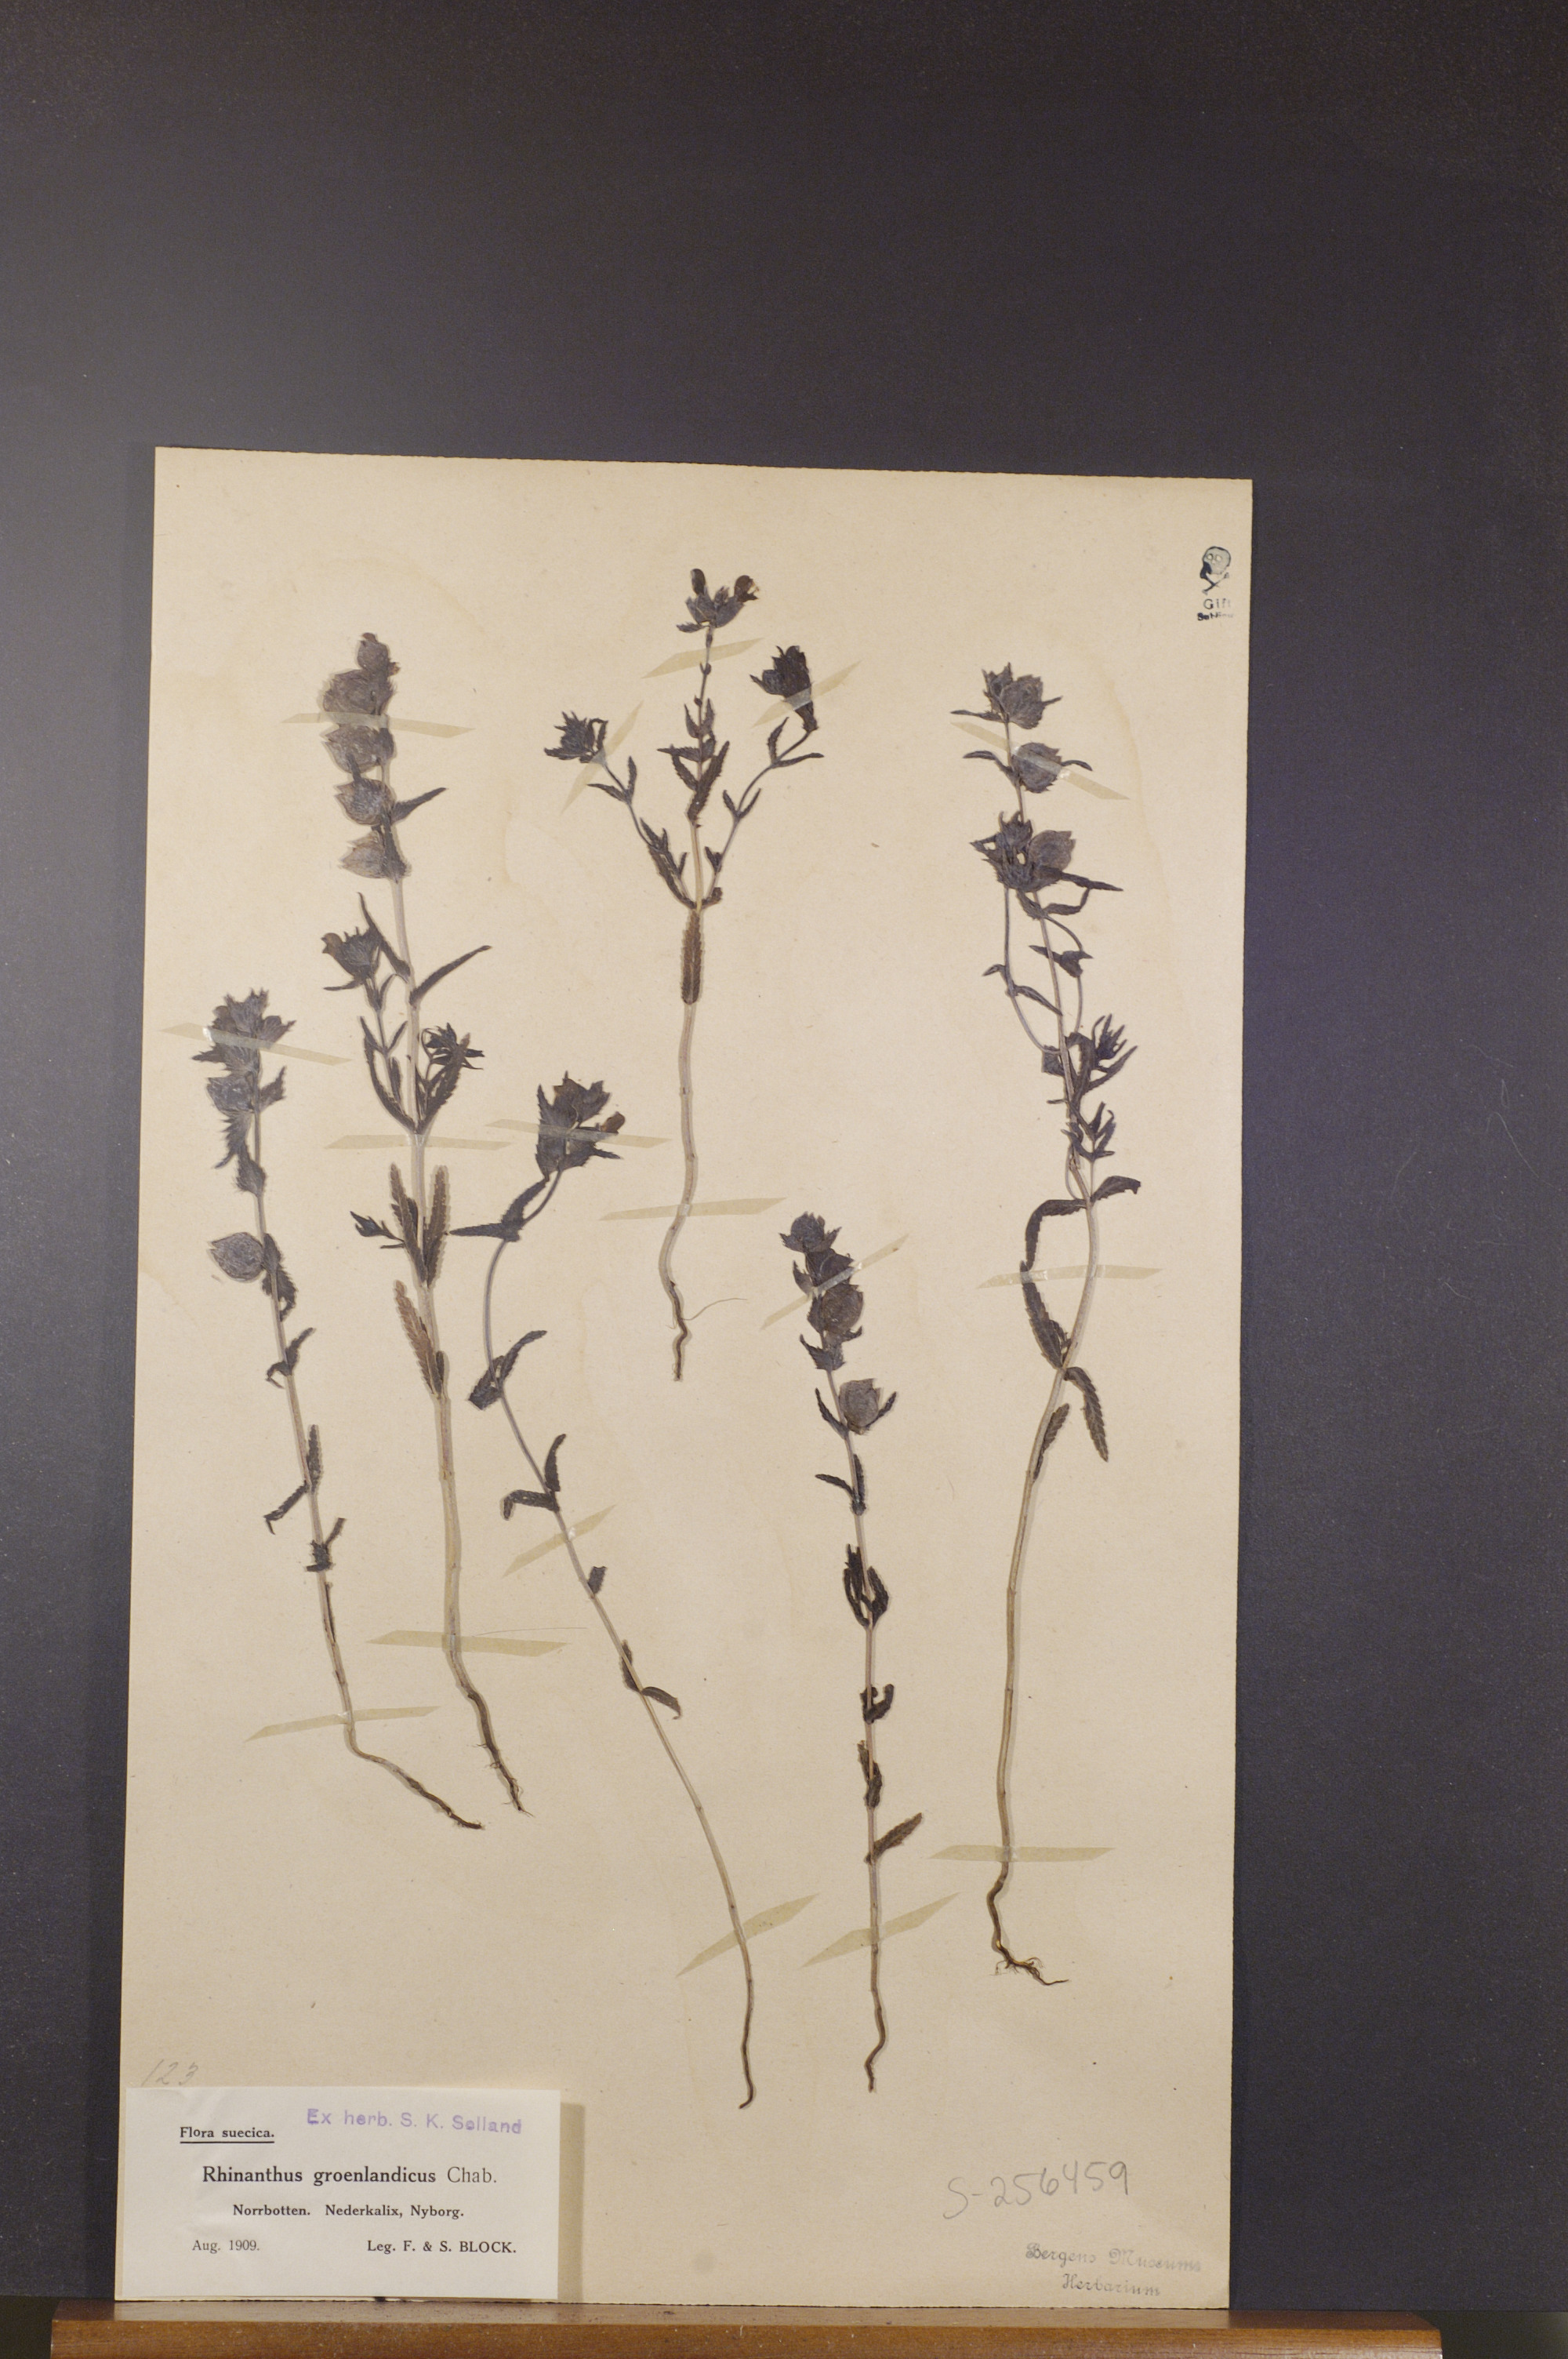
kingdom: Plantae
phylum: Tracheophyta
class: Magnoliopsida
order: Lamiales
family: Orobanchaceae
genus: Rhinanthus
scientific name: Rhinanthus groenlandicus
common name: Little yellow rattle
